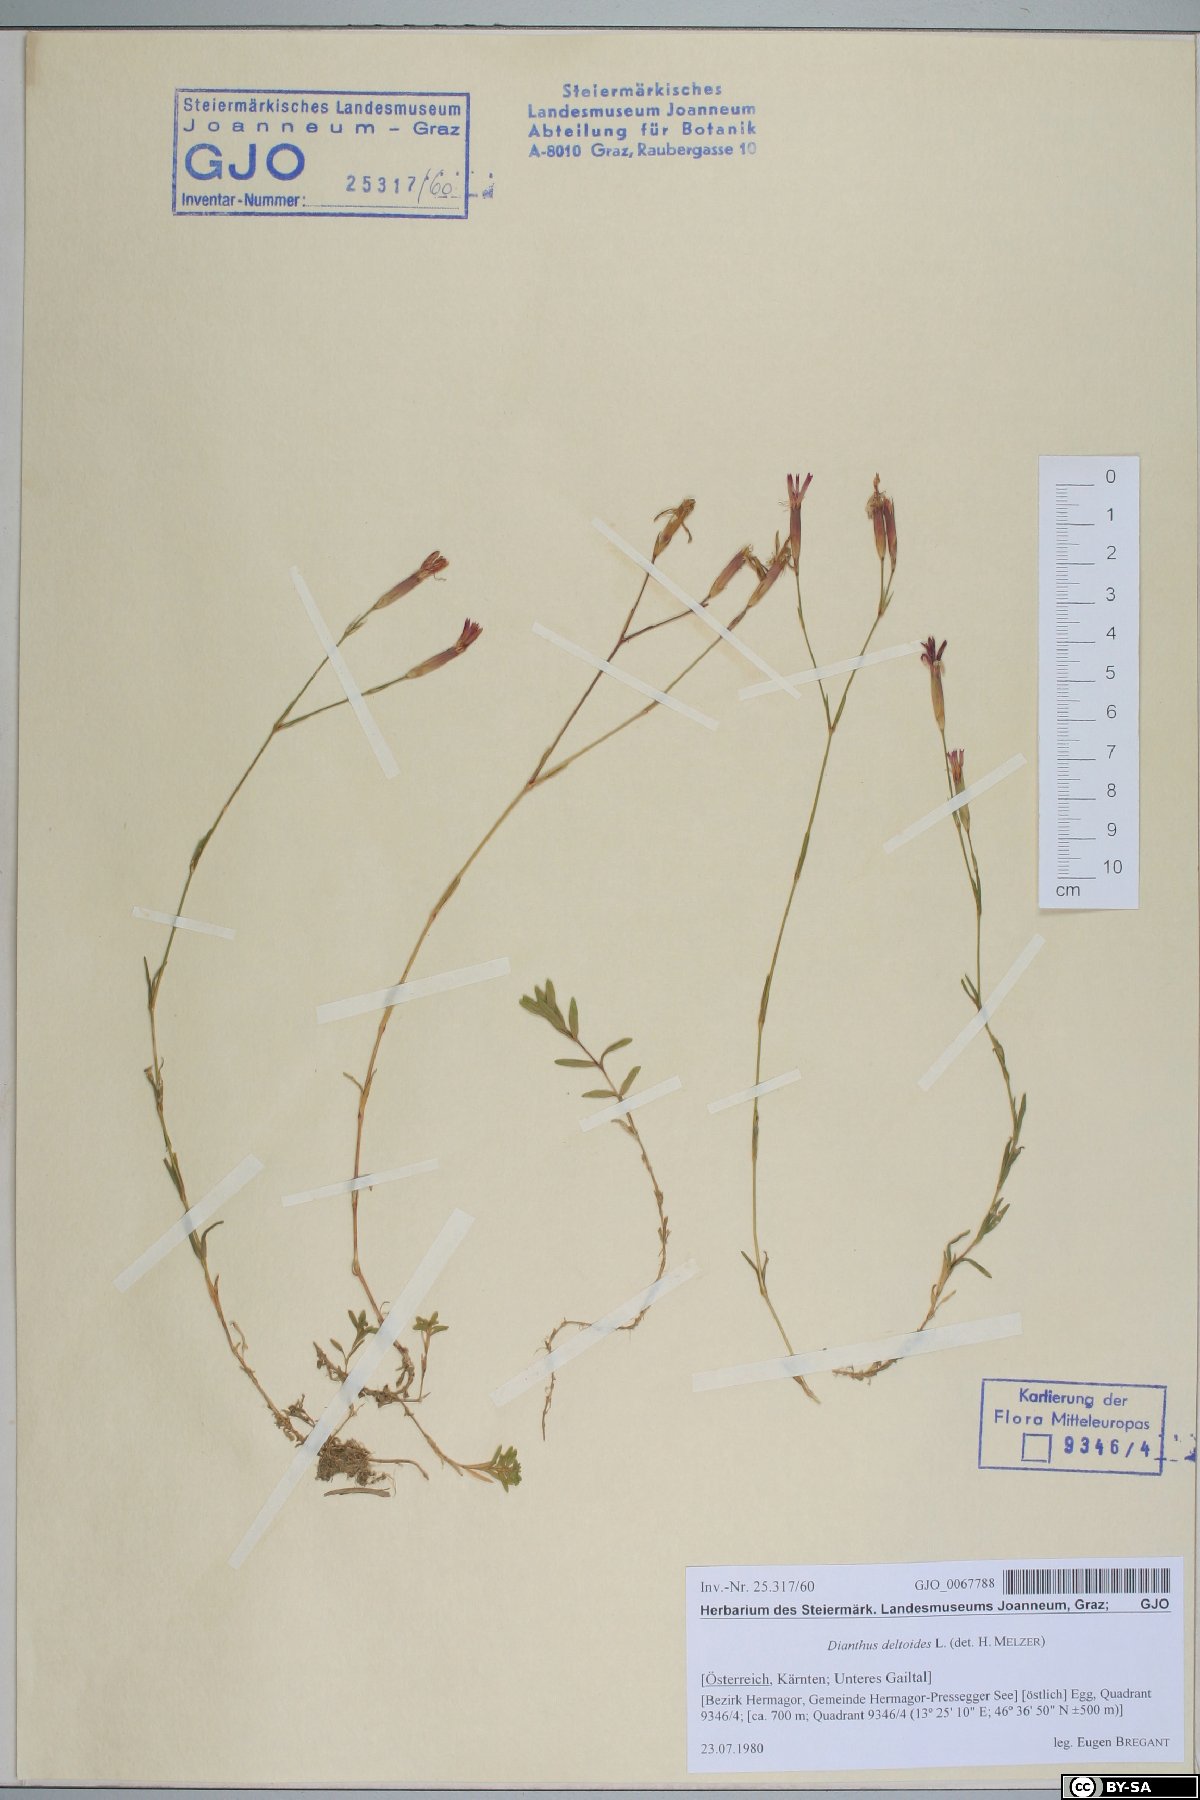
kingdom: Plantae
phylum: Tracheophyta
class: Magnoliopsida
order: Caryophyllales
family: Caryophyllaceae
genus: Dianthus
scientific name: Dianthus deltoides
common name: Maiden pink
